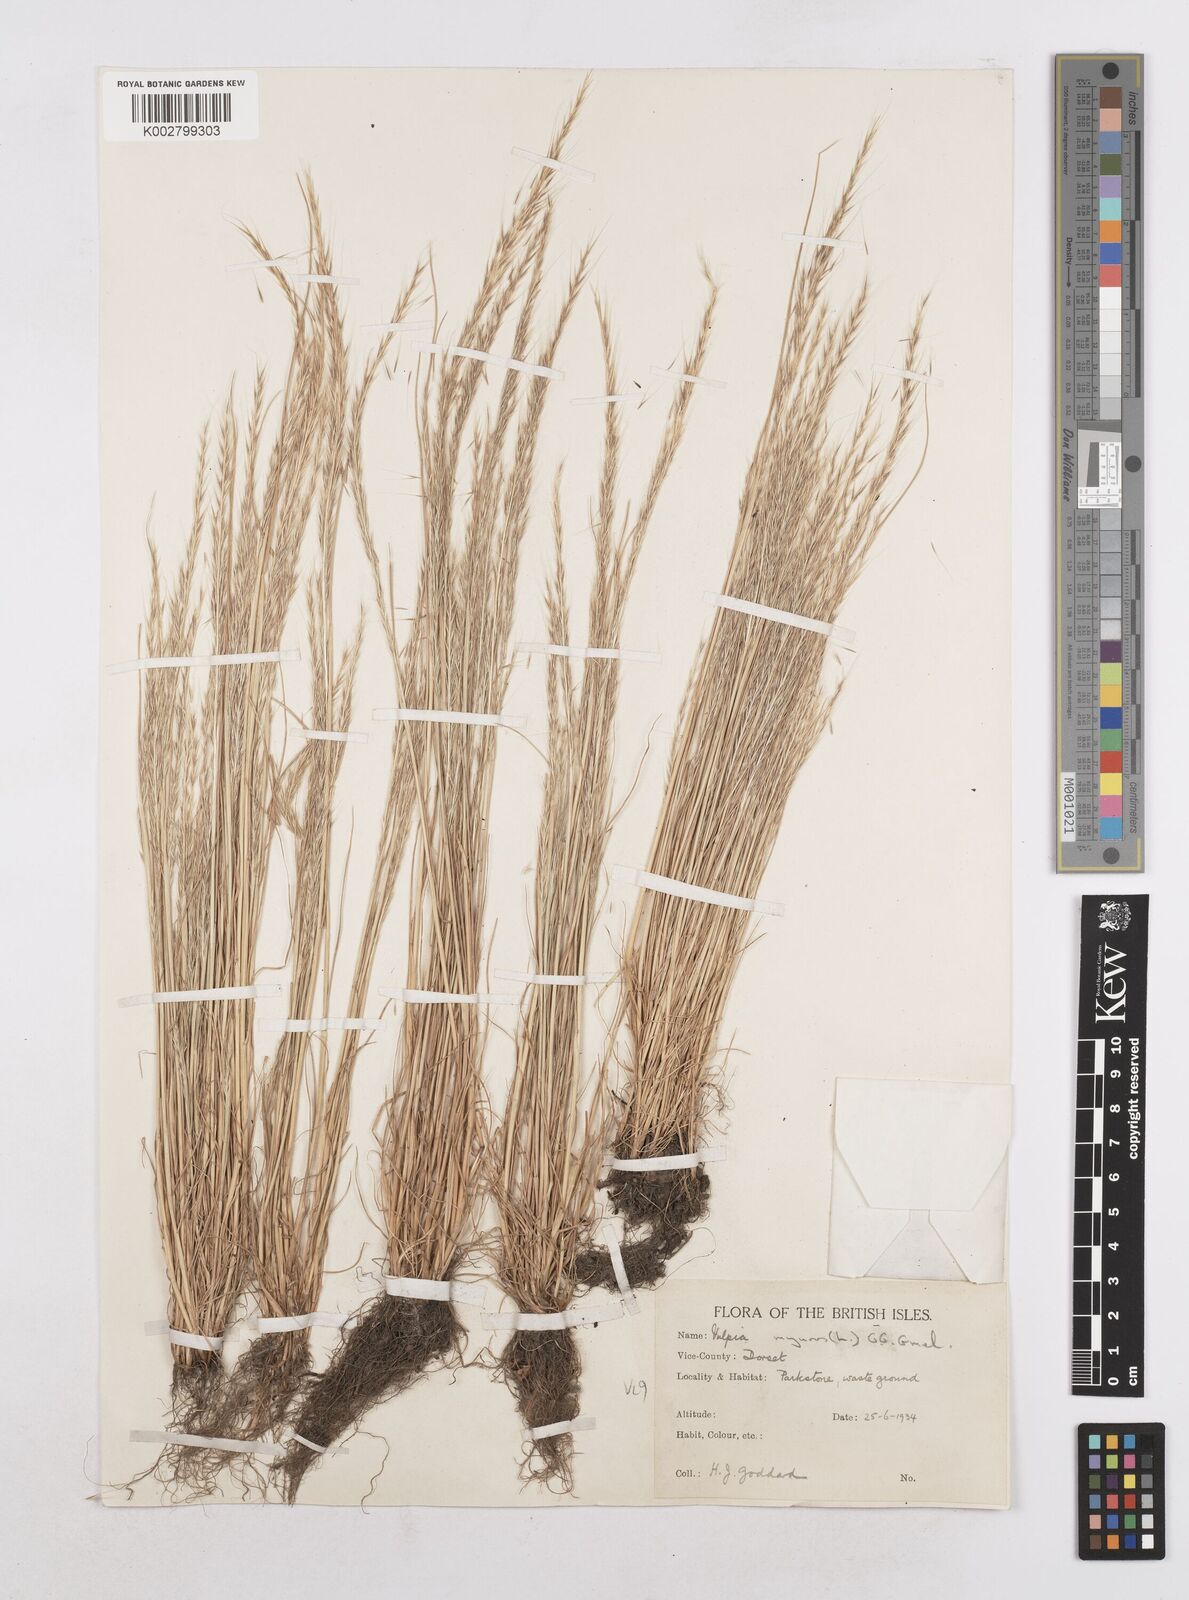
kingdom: Plantae
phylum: Tracheophyta
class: Liliopsida
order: Poales
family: Poaceae
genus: Festuca
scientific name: Festuca myuros
